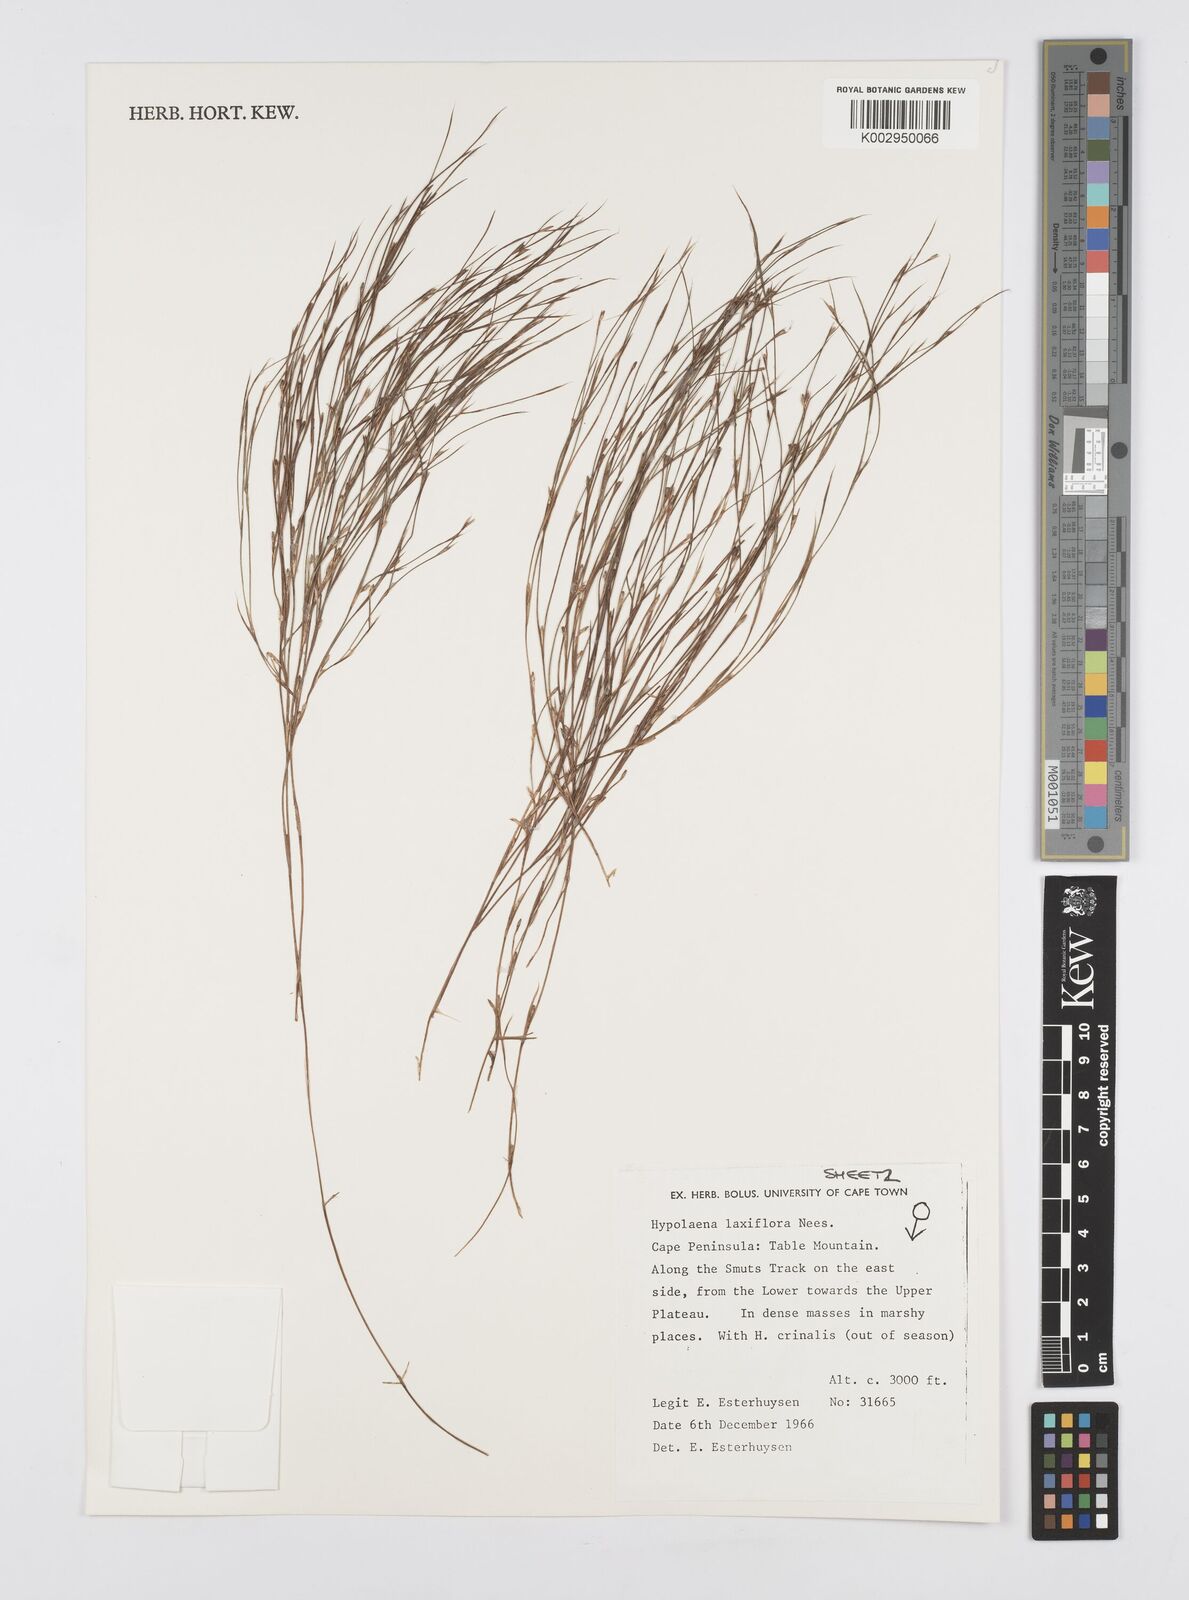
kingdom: Plantae
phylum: Tracheophyta
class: Liliopsida
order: Poales
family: Restionaceae
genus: Anthochortus
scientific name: Anthochortus laxiflorus
